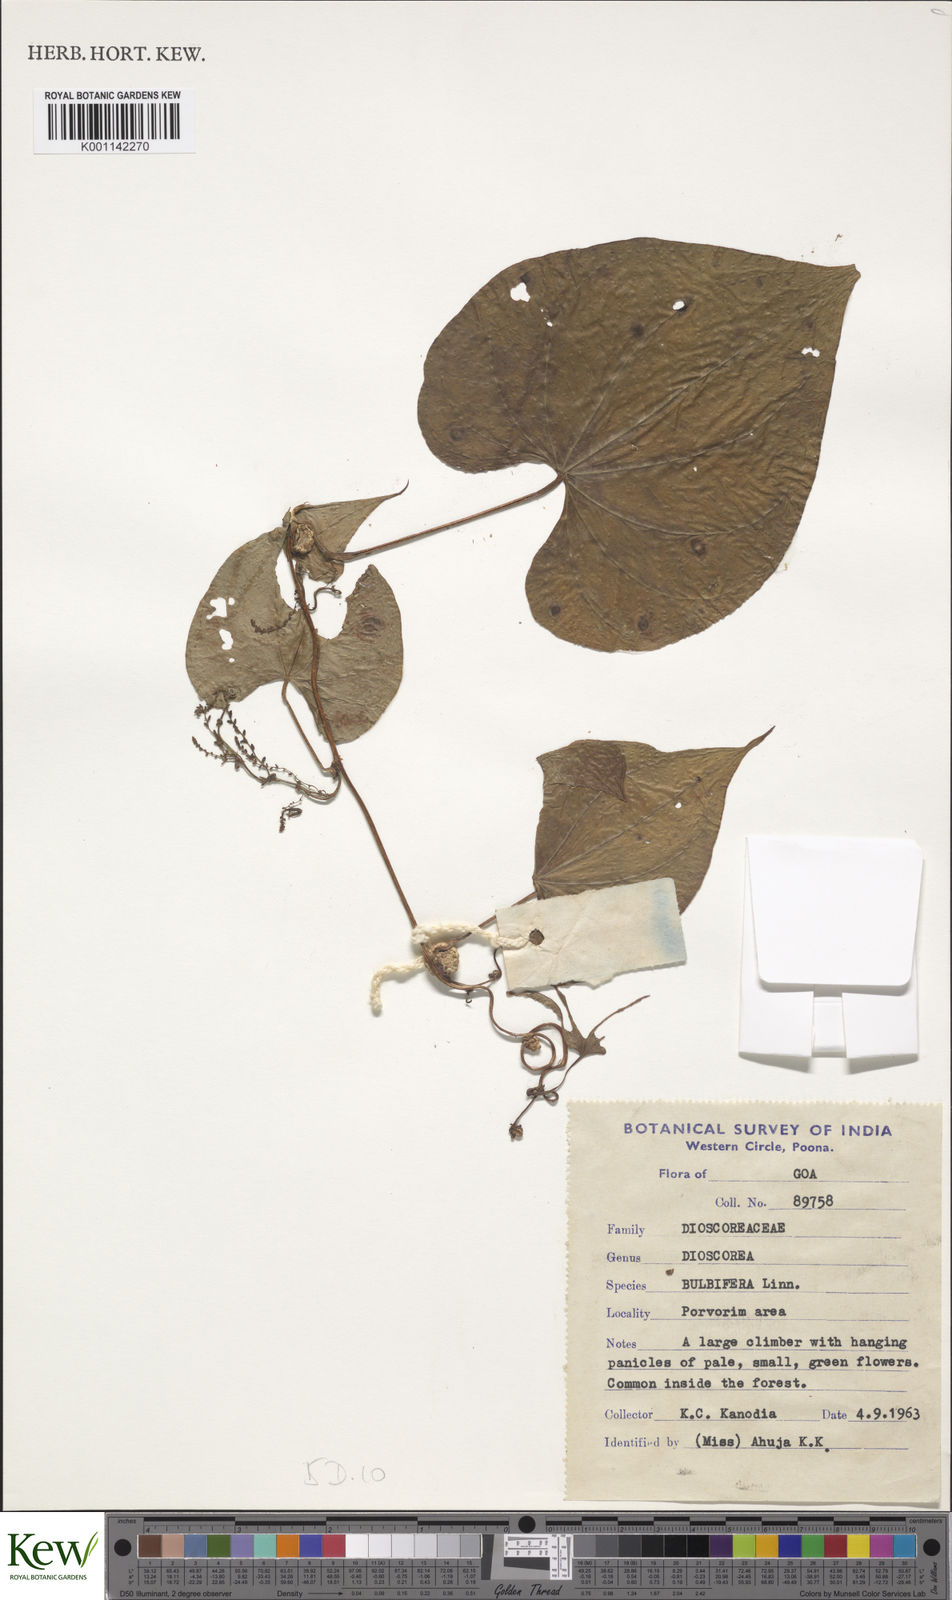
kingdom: Plantae
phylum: Tracheophyta
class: Liliopsida
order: Dioscoreales
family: Dioscoreaceae
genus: Dioscorea
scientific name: Dioscorea bulbifera
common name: Air yam
